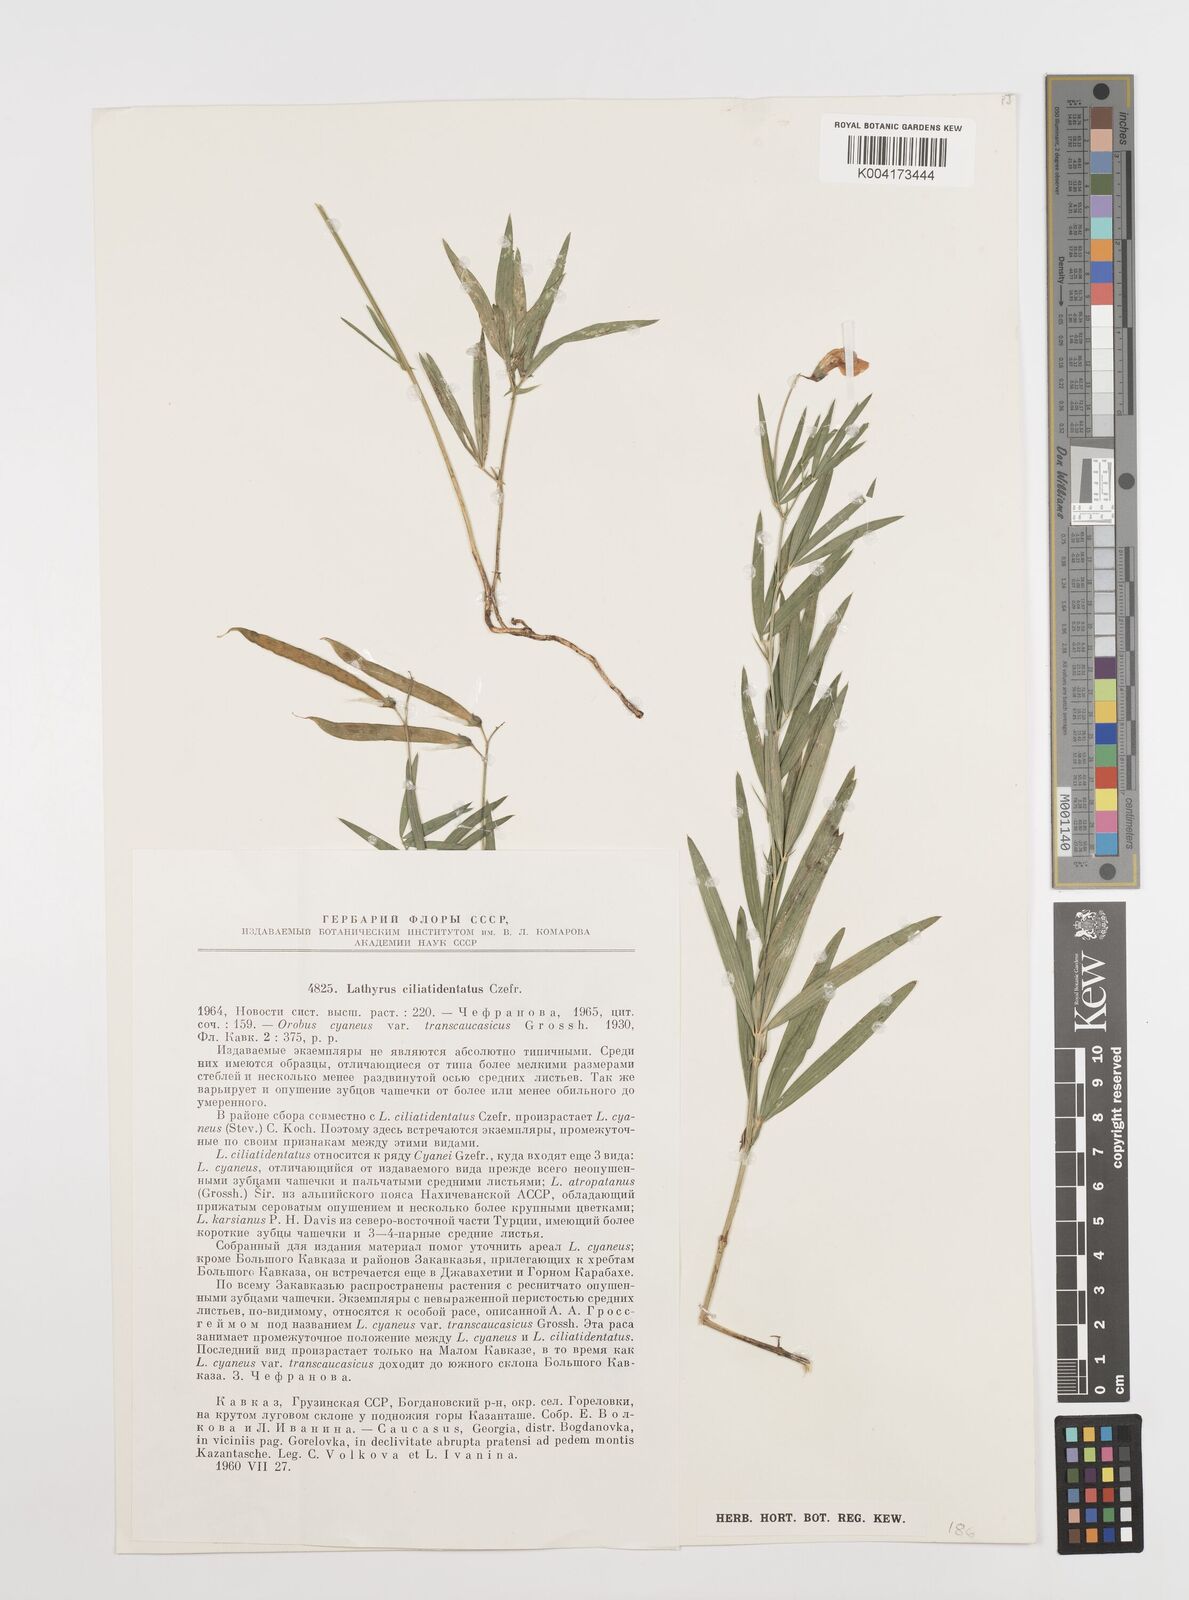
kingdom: Plantae
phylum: Tracheophyta
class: Magnoliopsida
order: Fabales
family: Fabaceae
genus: Lathyrus
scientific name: Lathyrus ciliatidentatus
